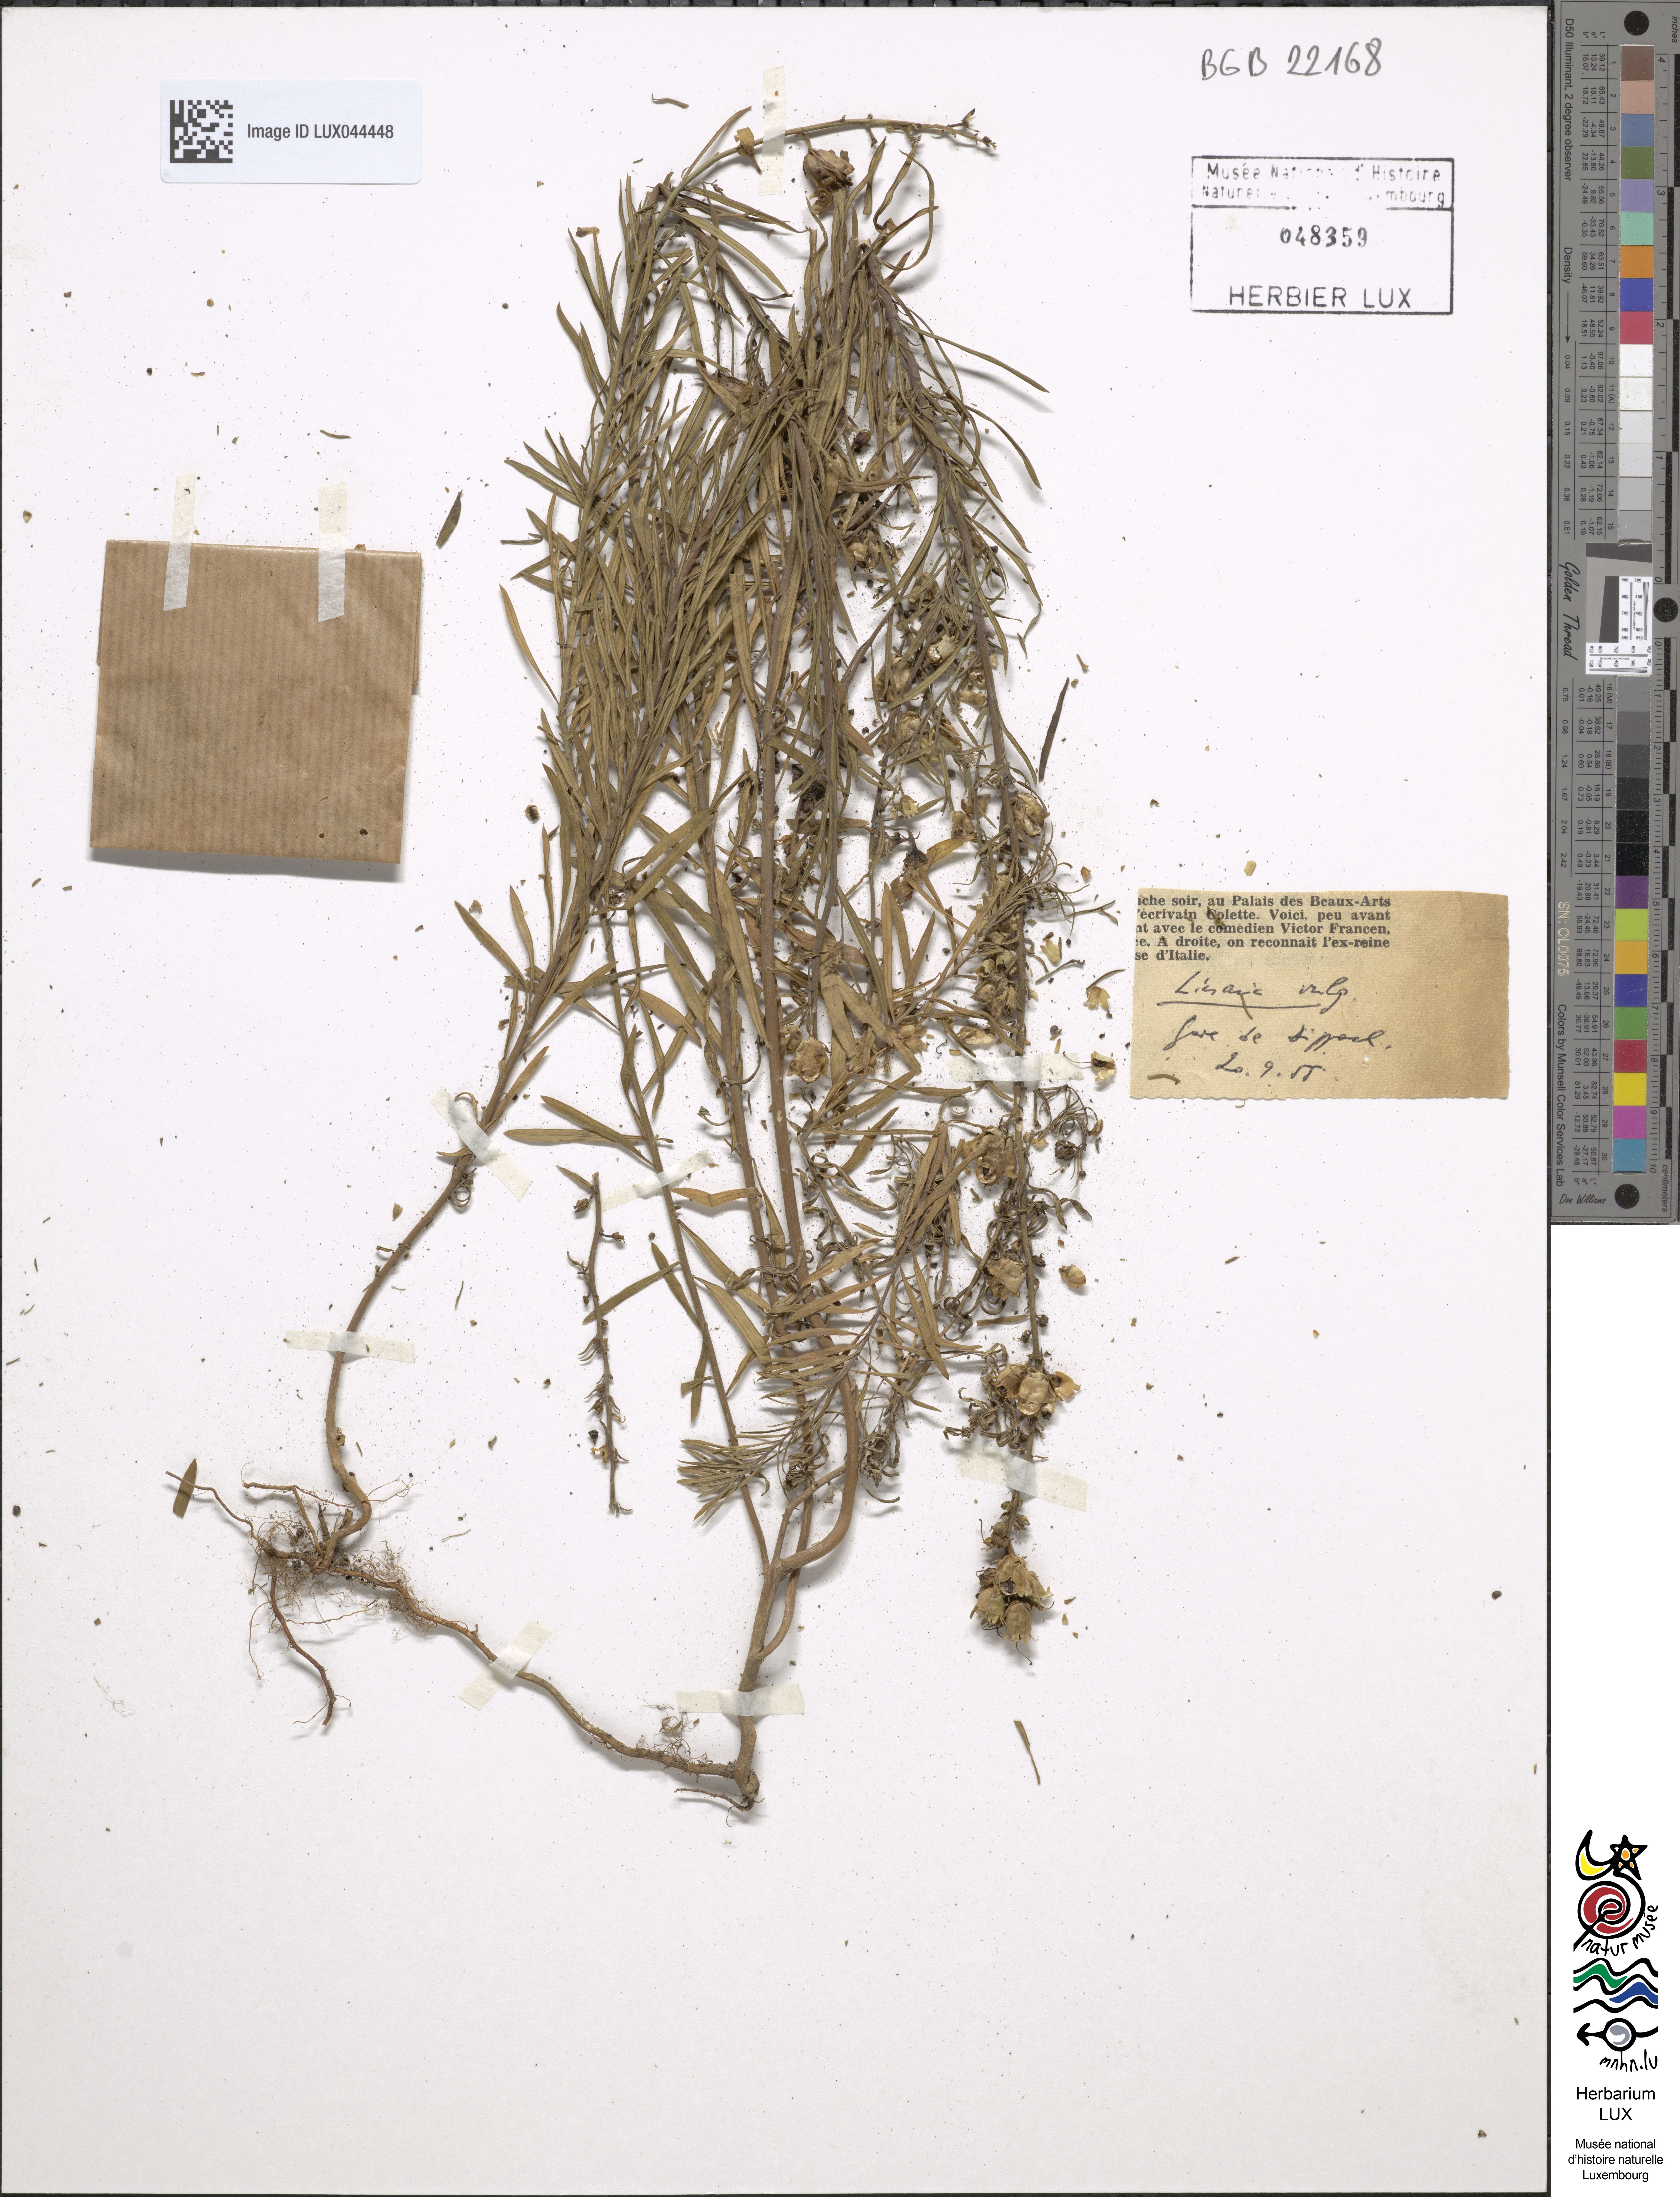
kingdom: Plantae
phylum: Tracheophyta
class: Magnoliopsida
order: Lamiales
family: Plantaginaceae
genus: Linaria
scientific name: Linaria vulgaris
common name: Butter and eggs
